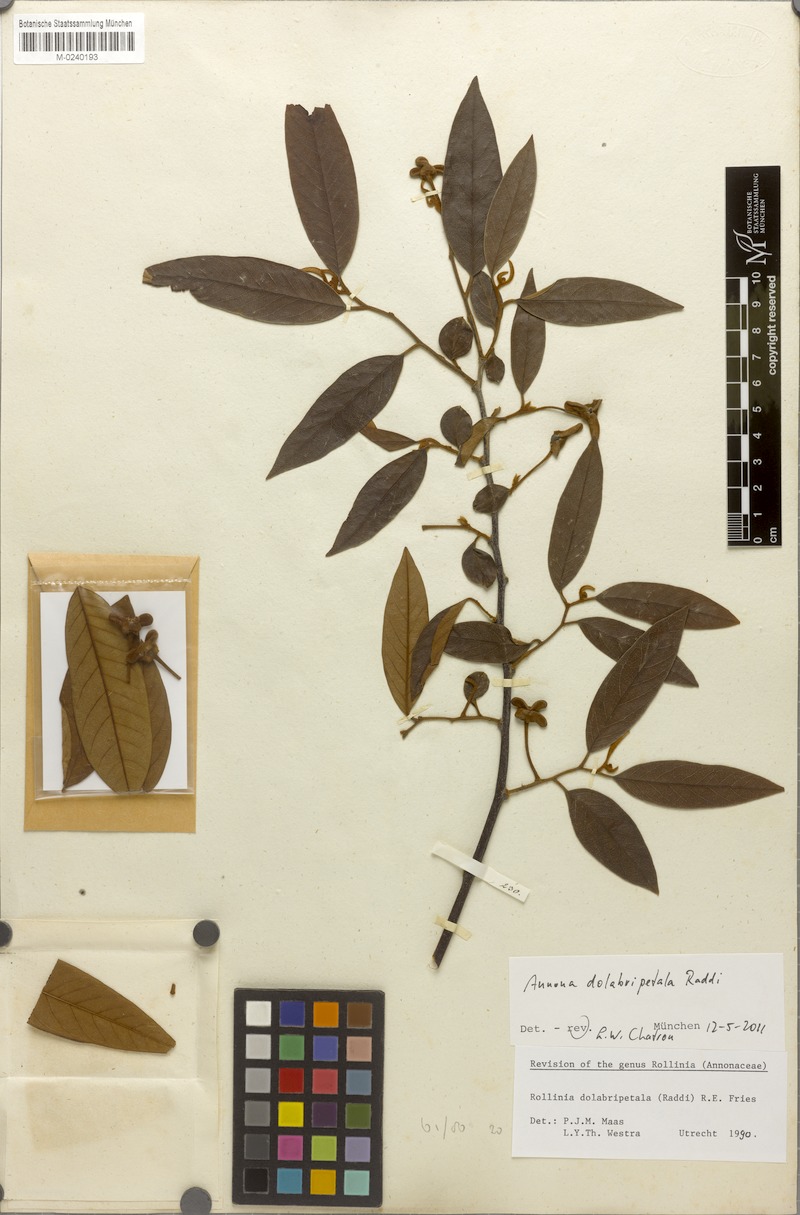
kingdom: Plantae
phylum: Tracheophyta
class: Magnoliopsida
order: Magnoliales
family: Annonaceae
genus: Annona
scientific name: Annona dolabripetala
